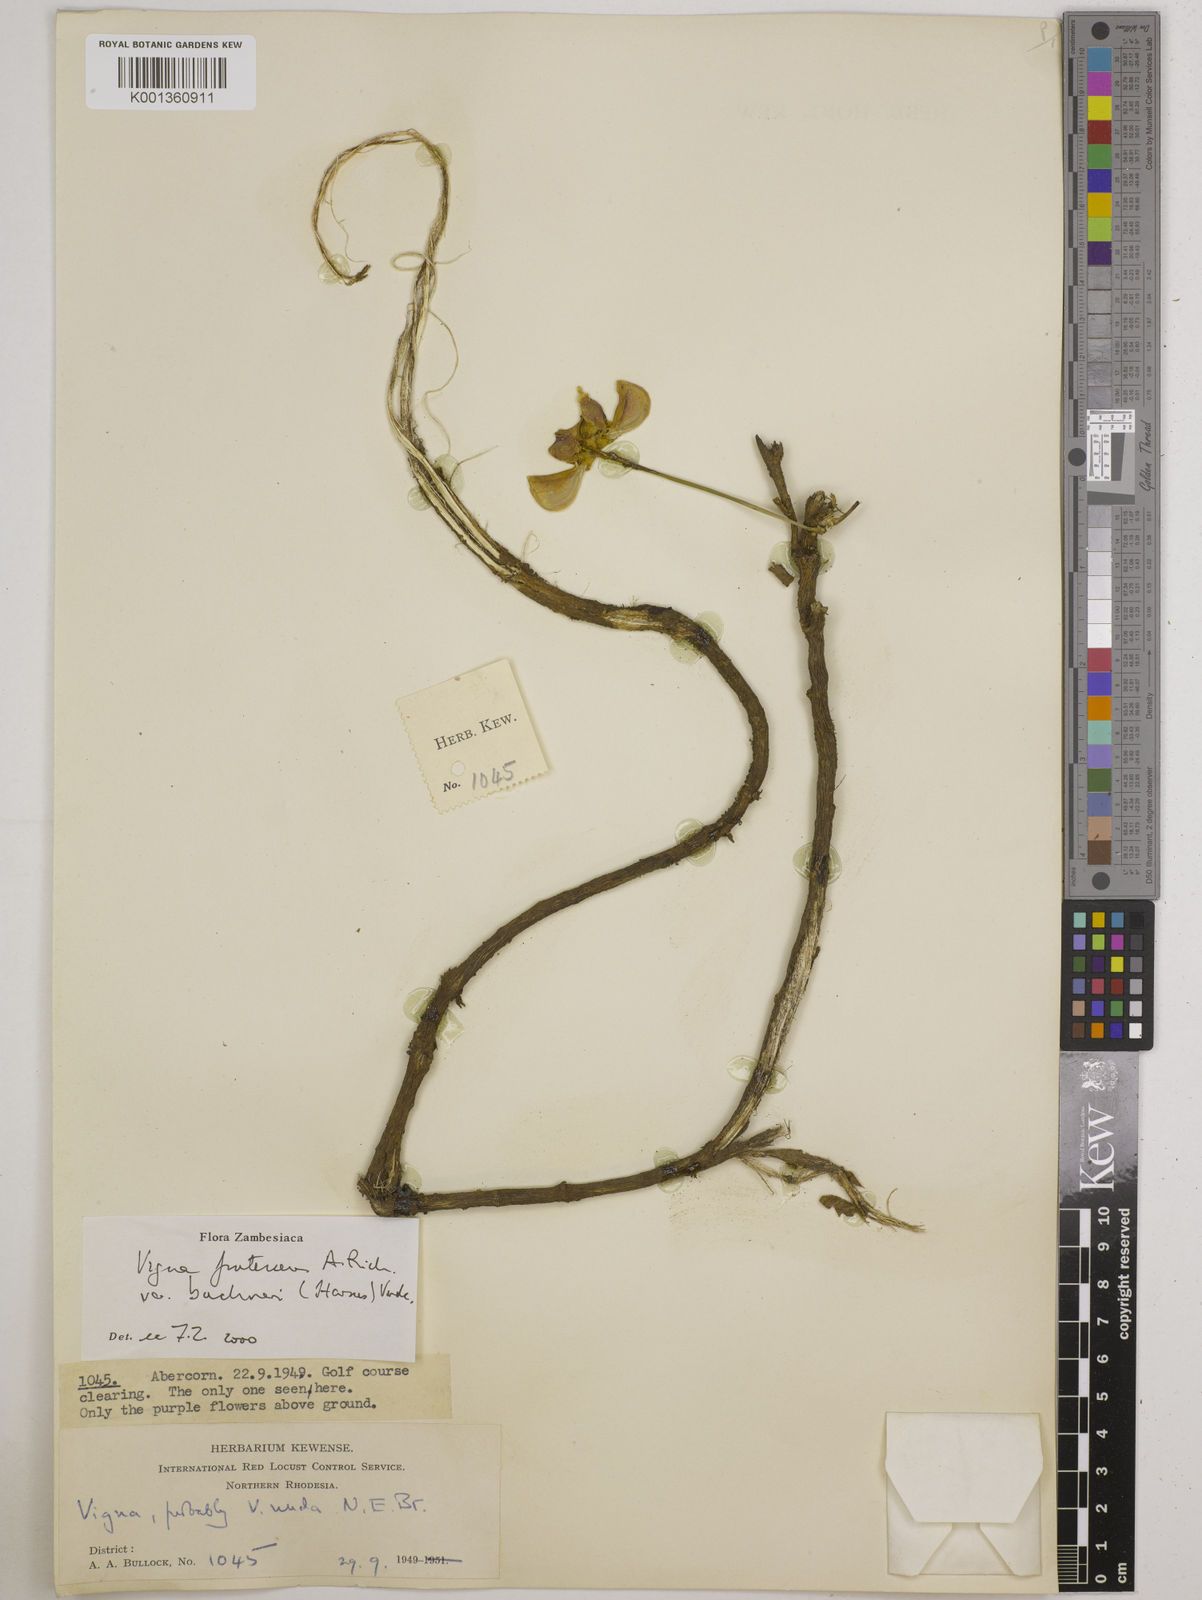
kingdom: Plantae
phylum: Tracheophyta
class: Magnoliopsida
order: Fabales
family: Fabaceae
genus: Vigna
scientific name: Vigna
